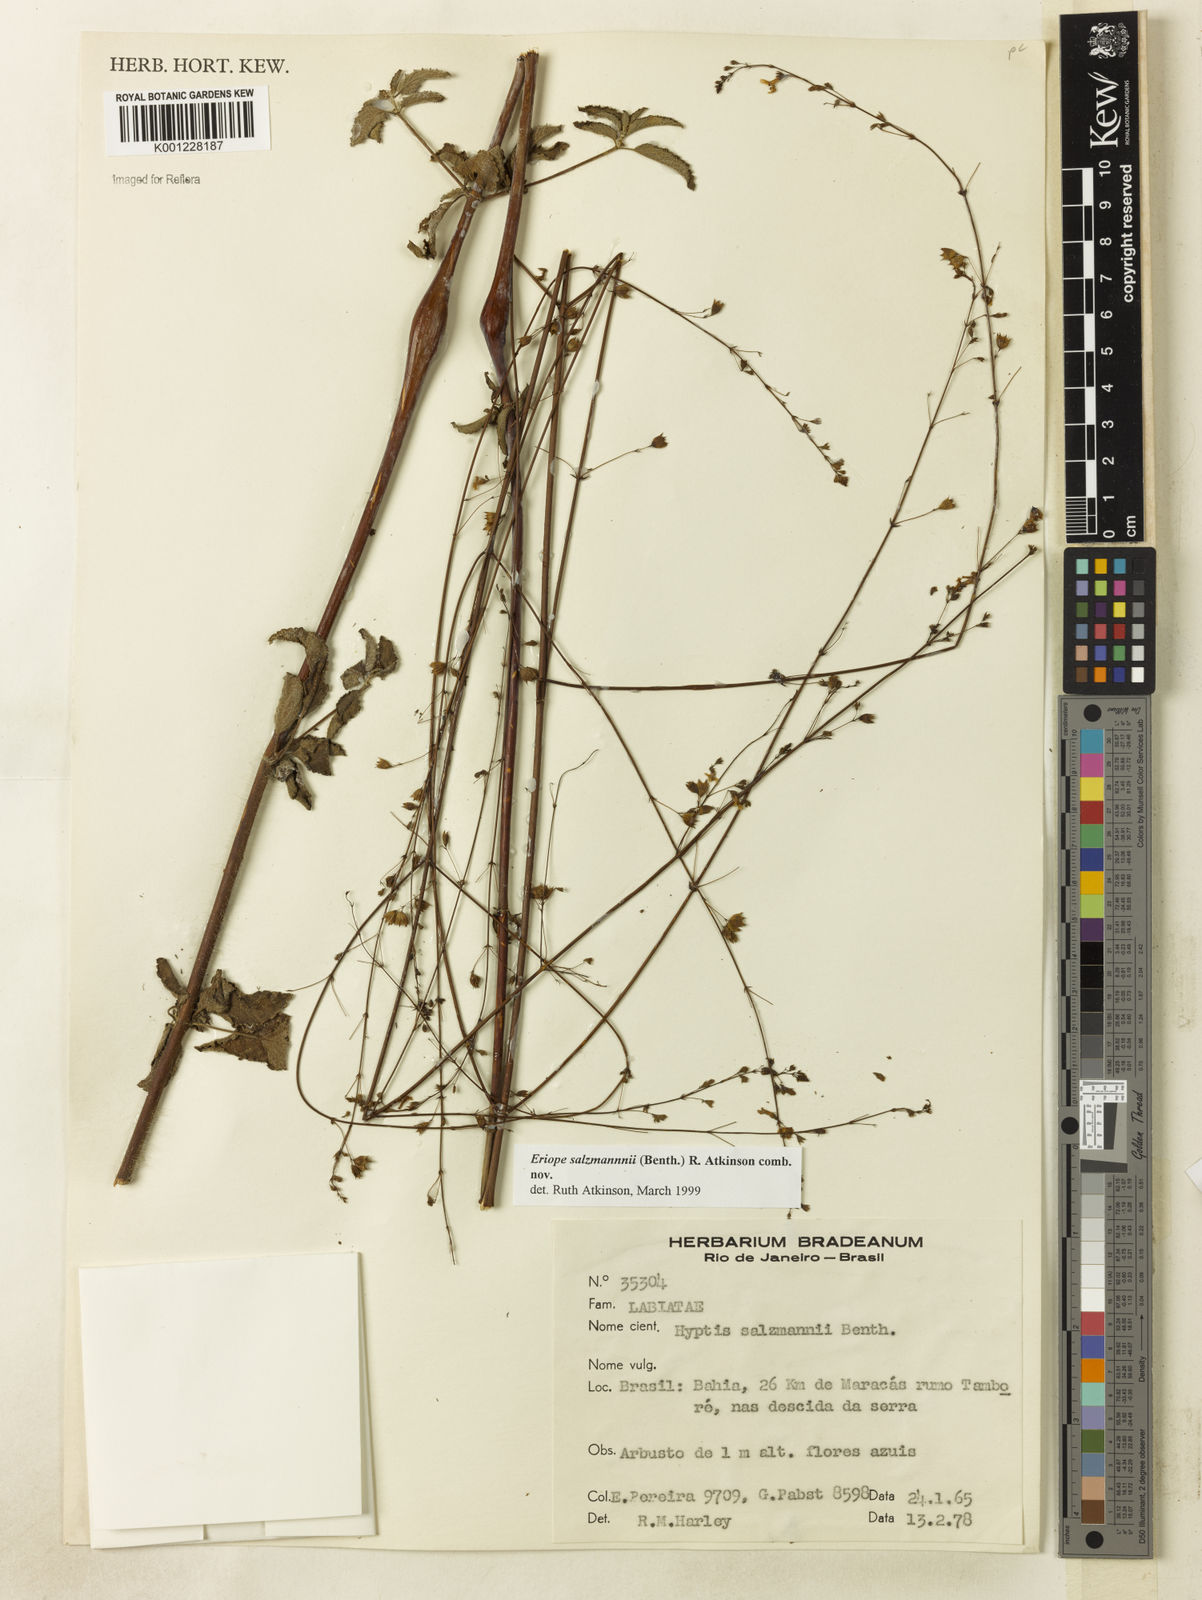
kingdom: Plantae
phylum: Tracheophyta
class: Magnoliopsida
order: Lamiales
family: Lamiaceae
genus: Hypenia
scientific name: Hypenia salzmannii
